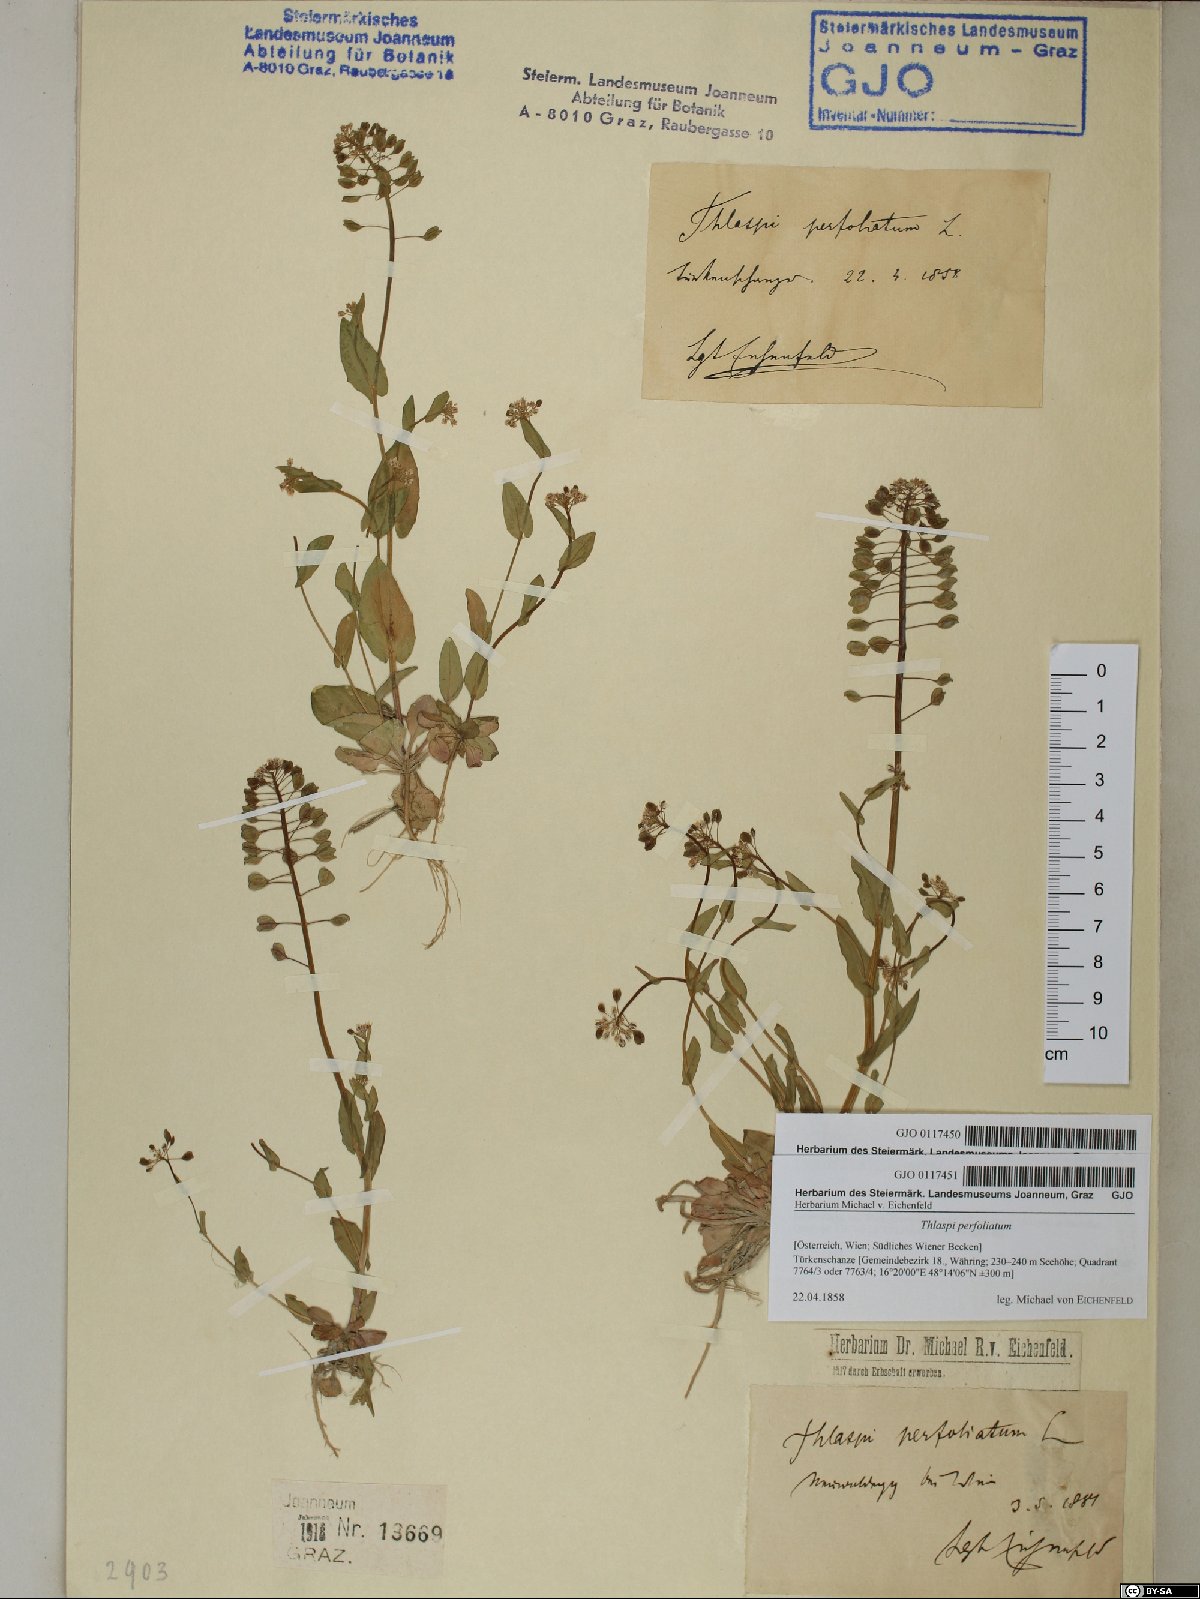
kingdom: Plantae
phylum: Tracheophyta
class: Magnoliopsida
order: Brassicales
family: Brassicaceae
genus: Noccaea
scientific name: Noccaea perfoliata
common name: Perfoliate pennycress
